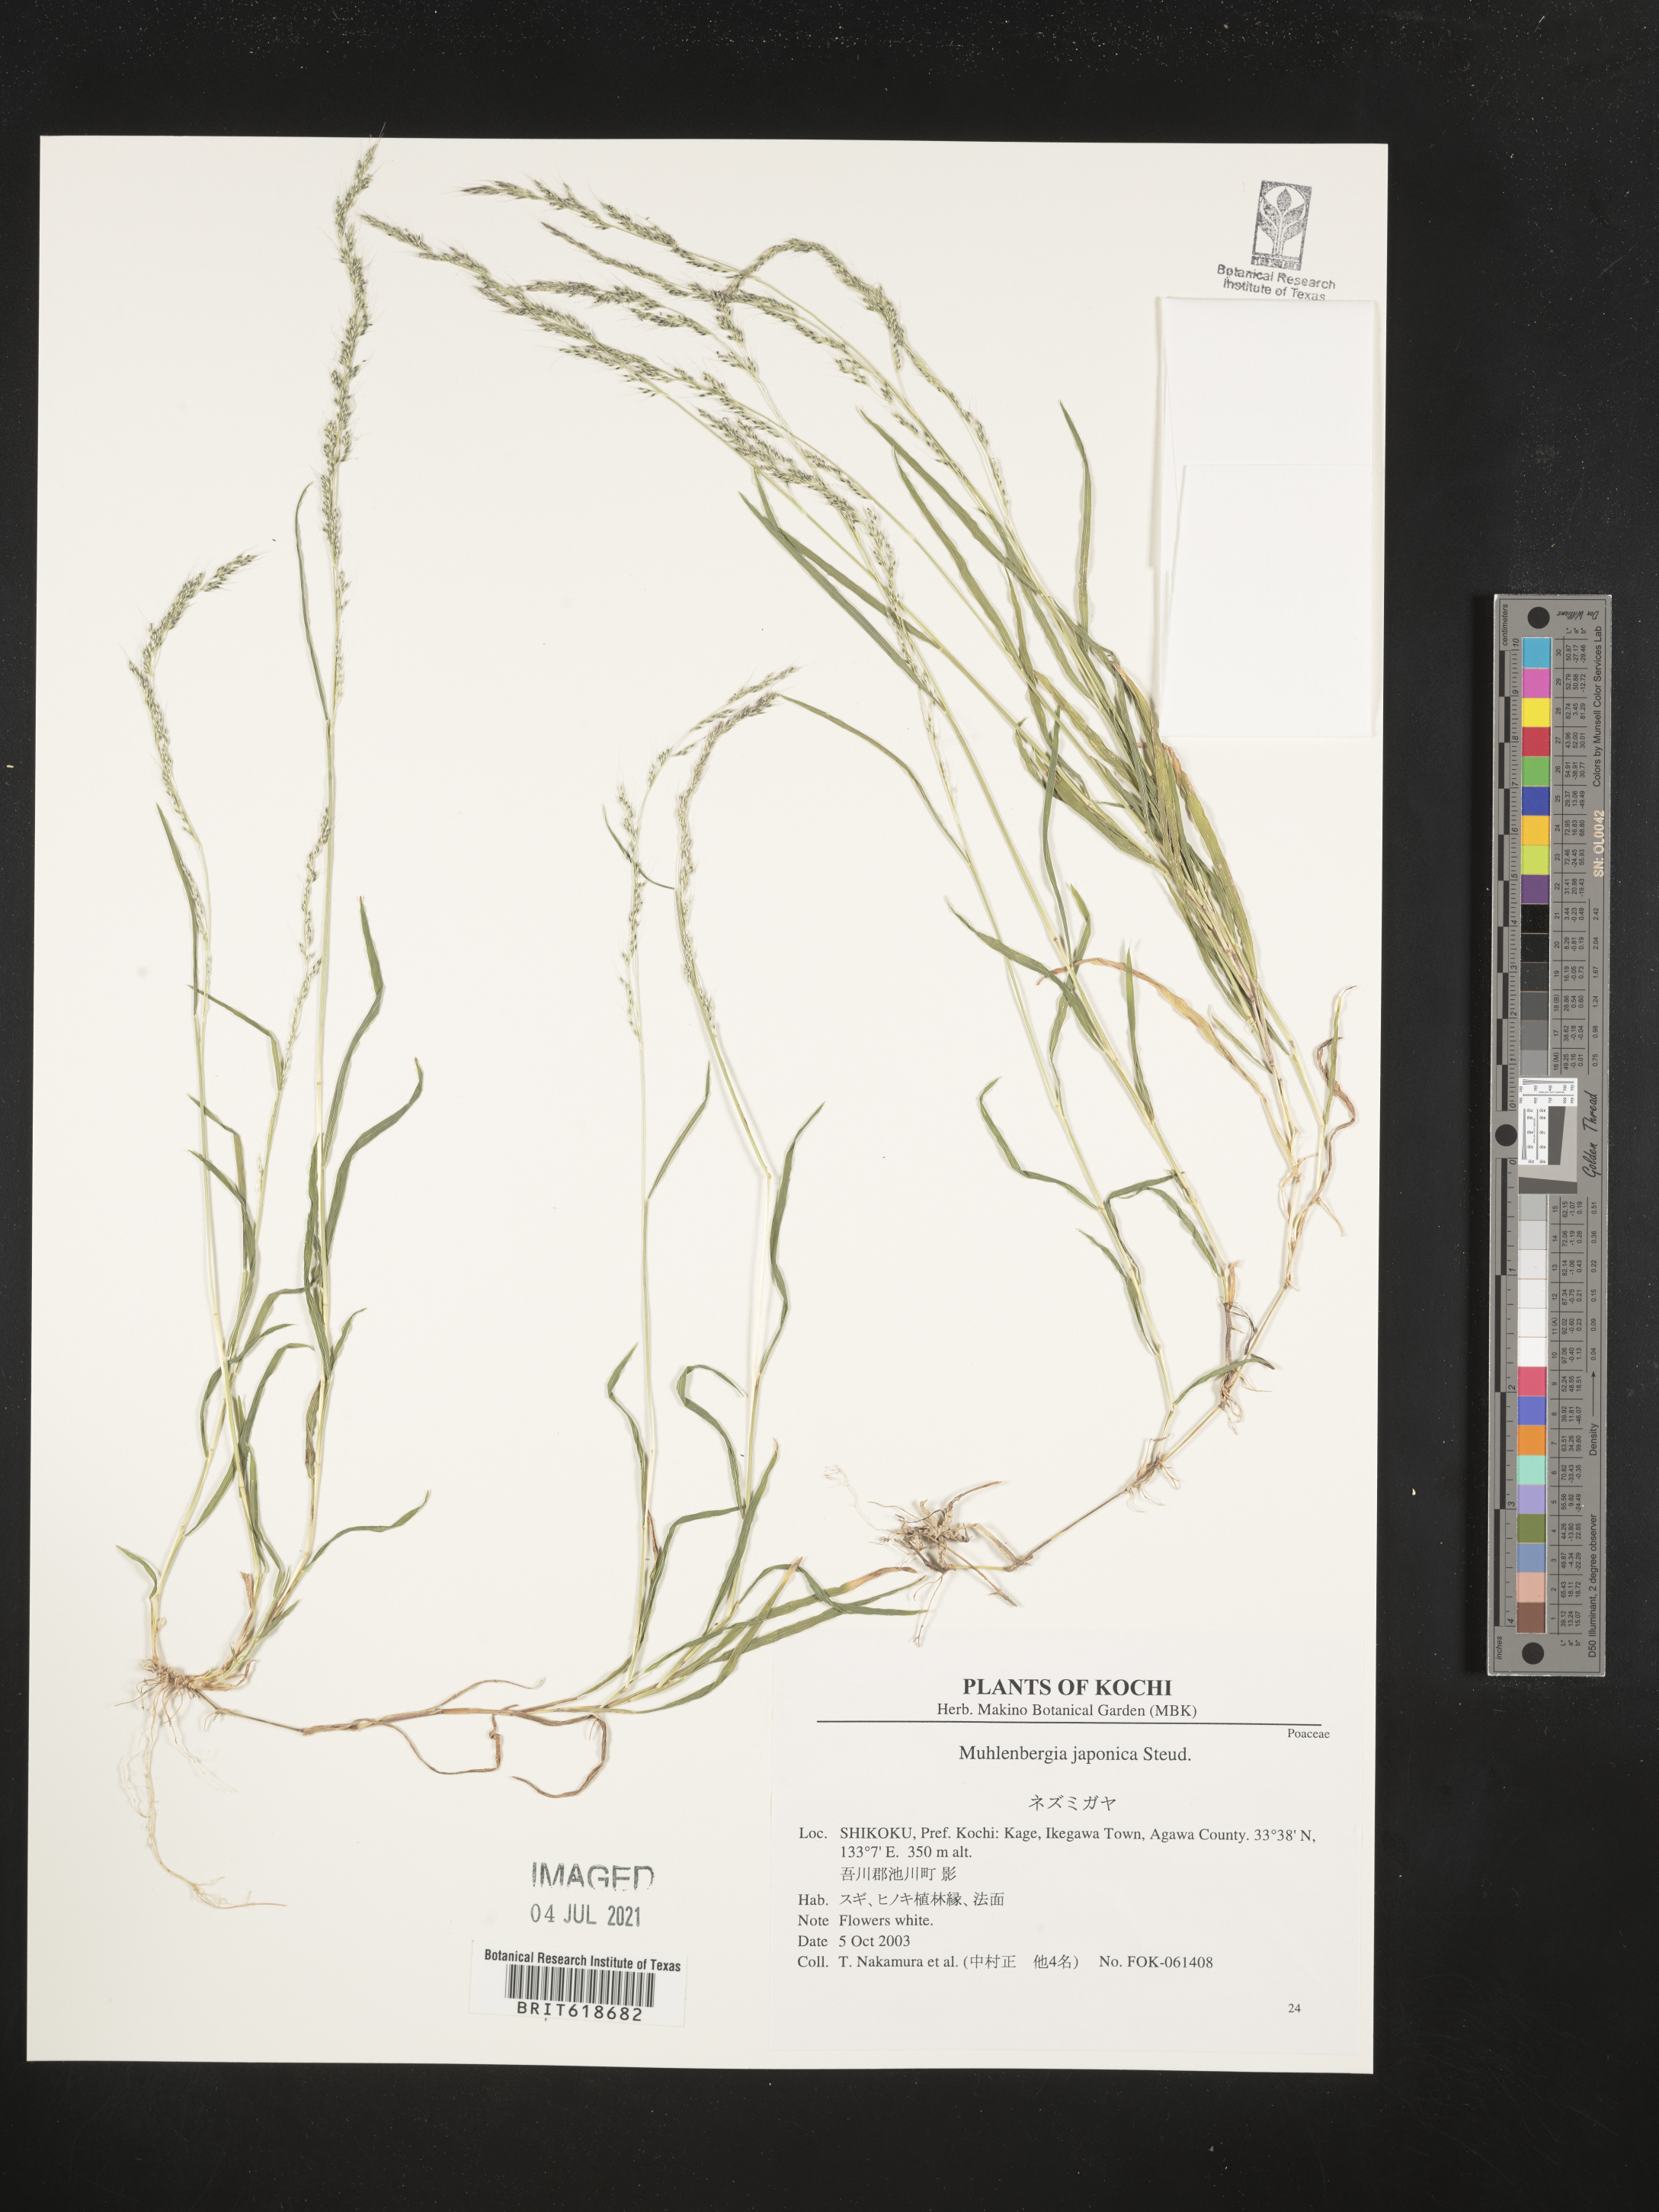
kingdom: Plantae
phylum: Tracheophyta
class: Liliopsida
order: Poales
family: Poaceae
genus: Muhlenbergia
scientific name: Muhlenbergia japonica
